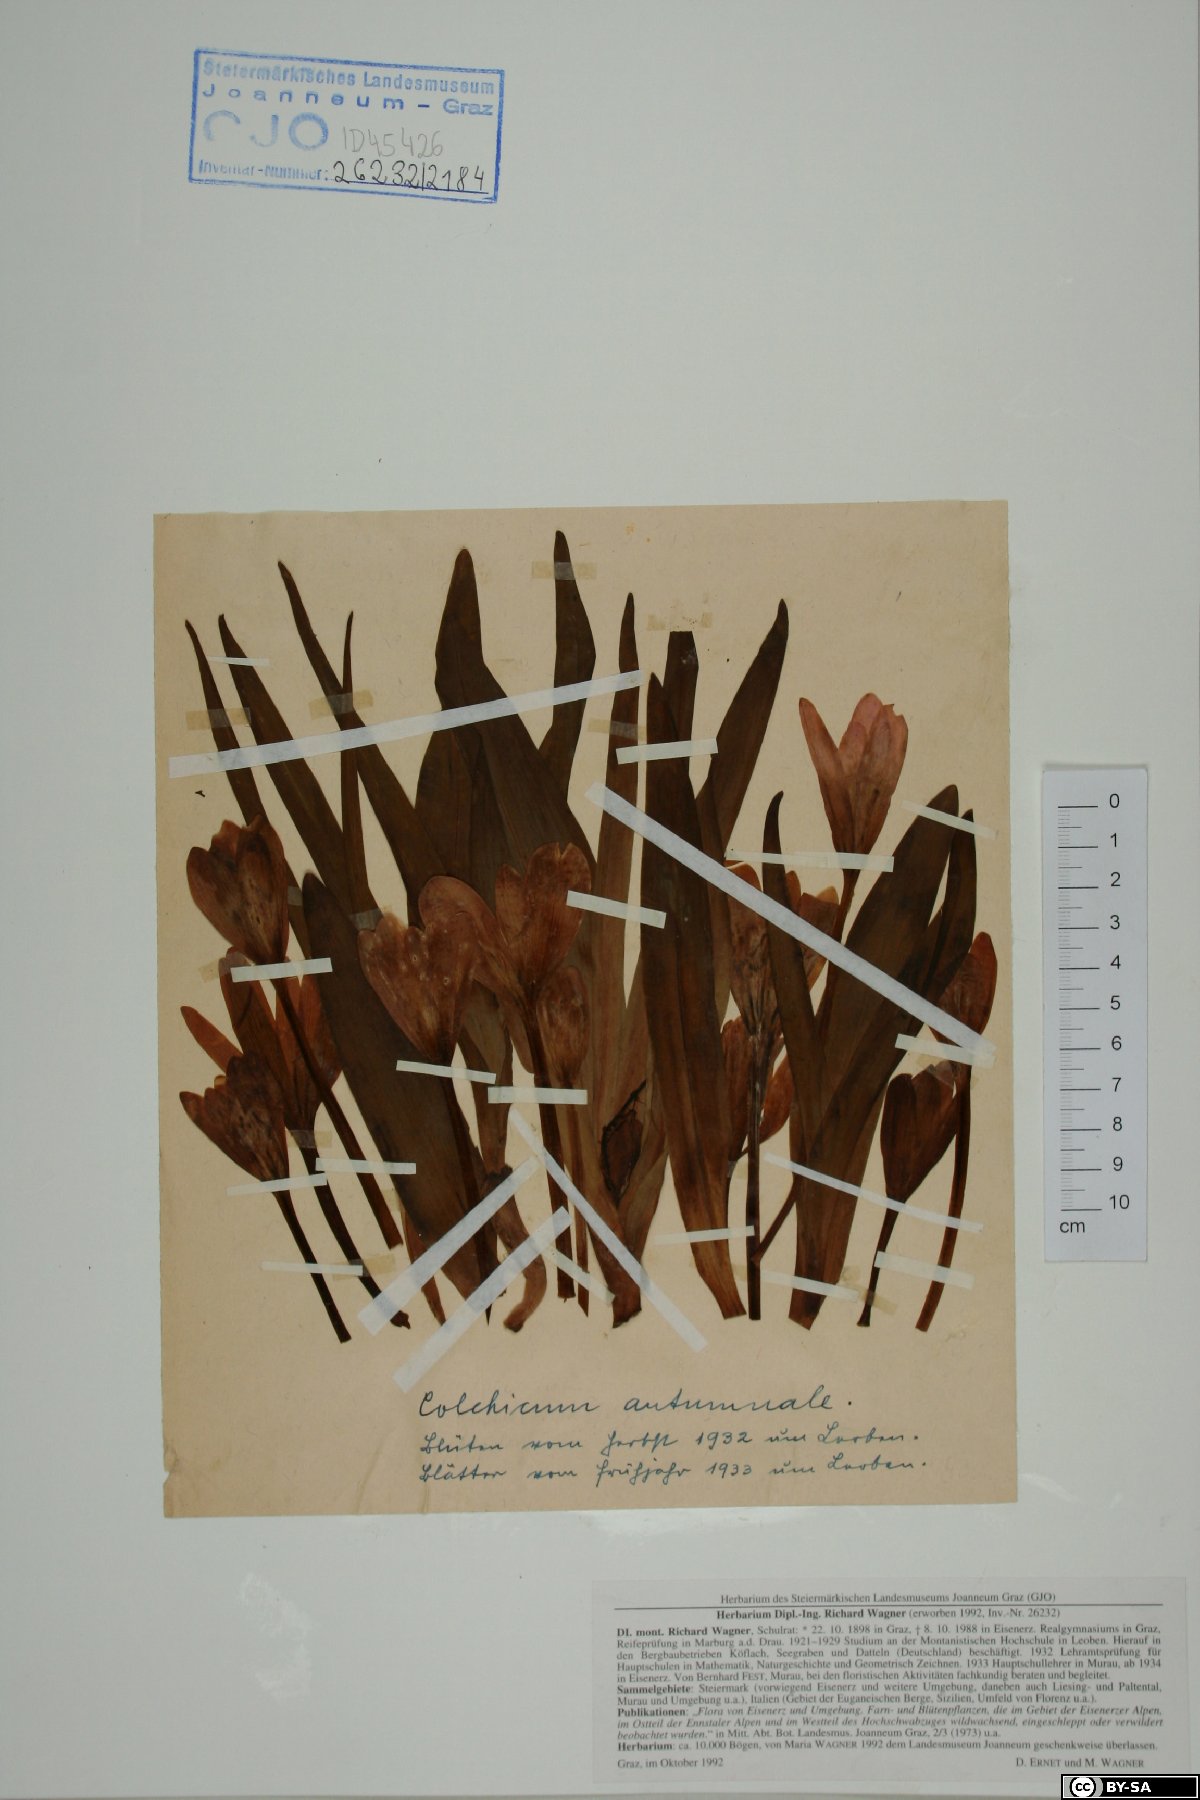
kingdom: Plantae
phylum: Tracheophyta
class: Liliopsida
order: Liliales
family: Colchicaceae
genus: Colchicum
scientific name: Colchicum autumnale
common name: Autumn crocus
